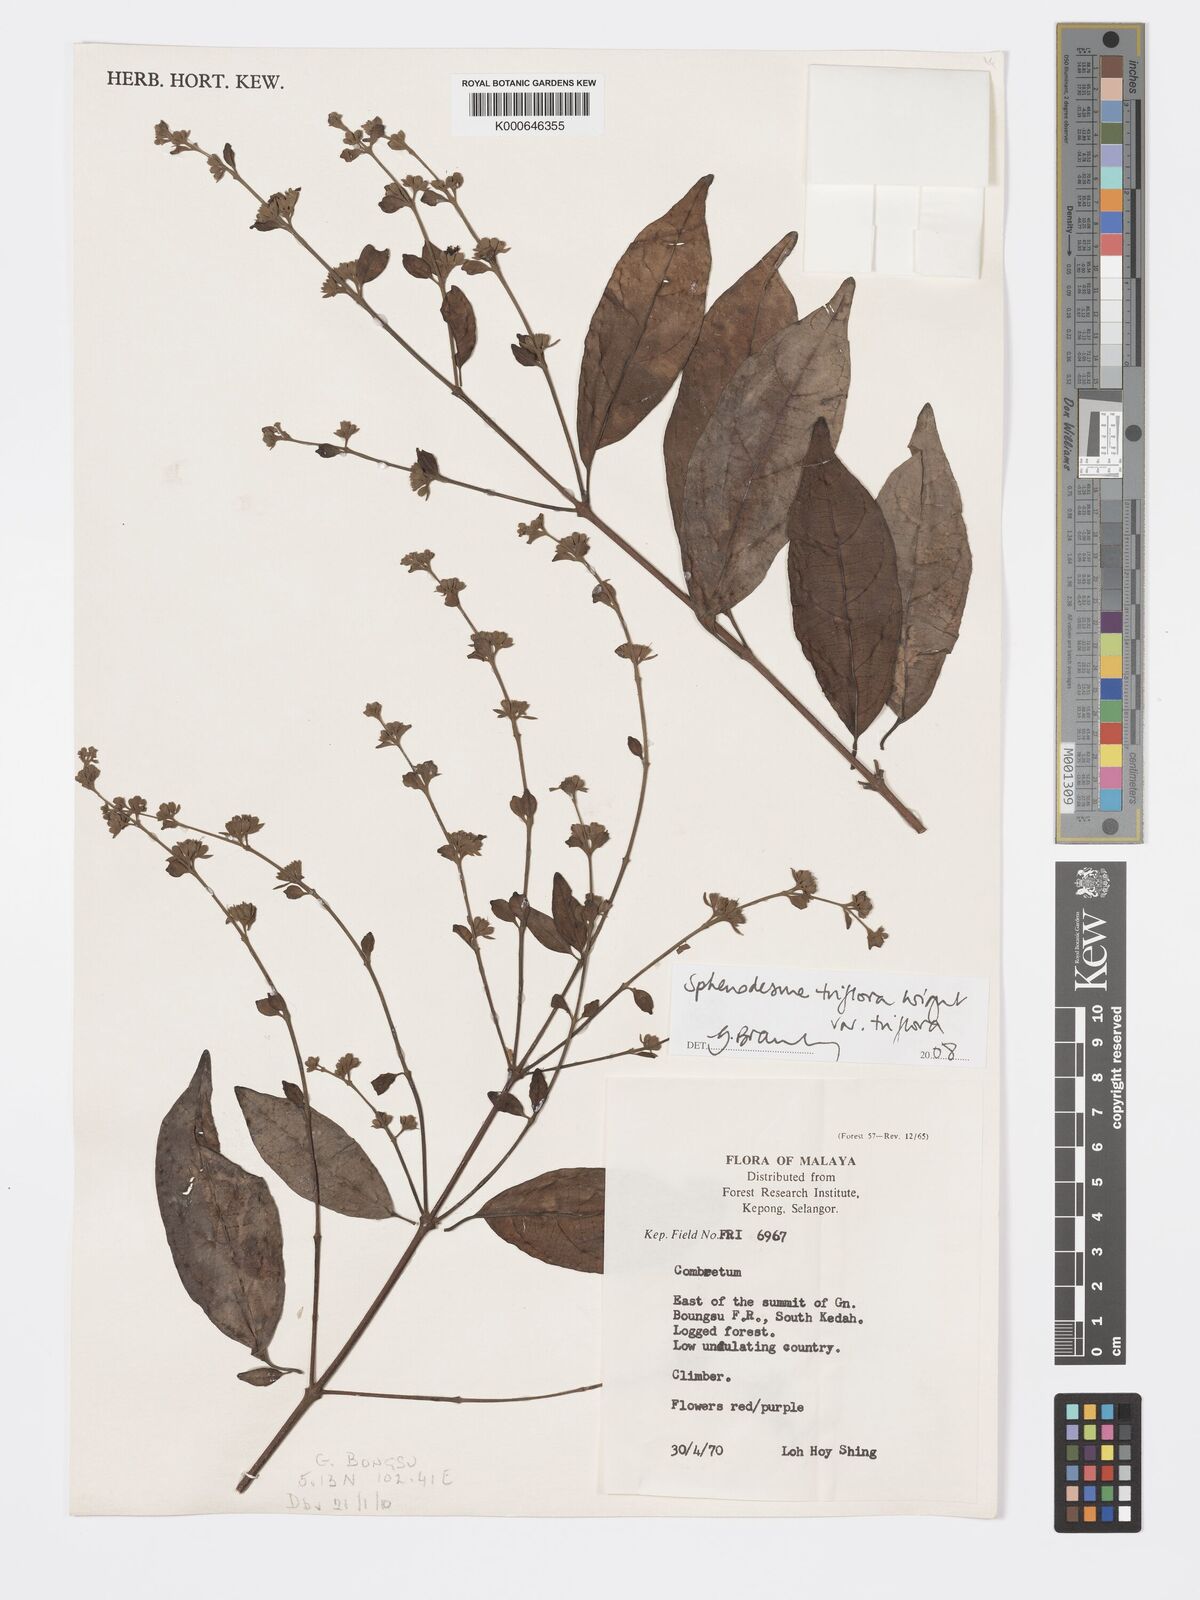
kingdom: Plantae
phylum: Tracheophyta
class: Magnoliopsida
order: Lamiales
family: Lamiaceae
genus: Sphenodesme
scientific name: Sphenodesme
